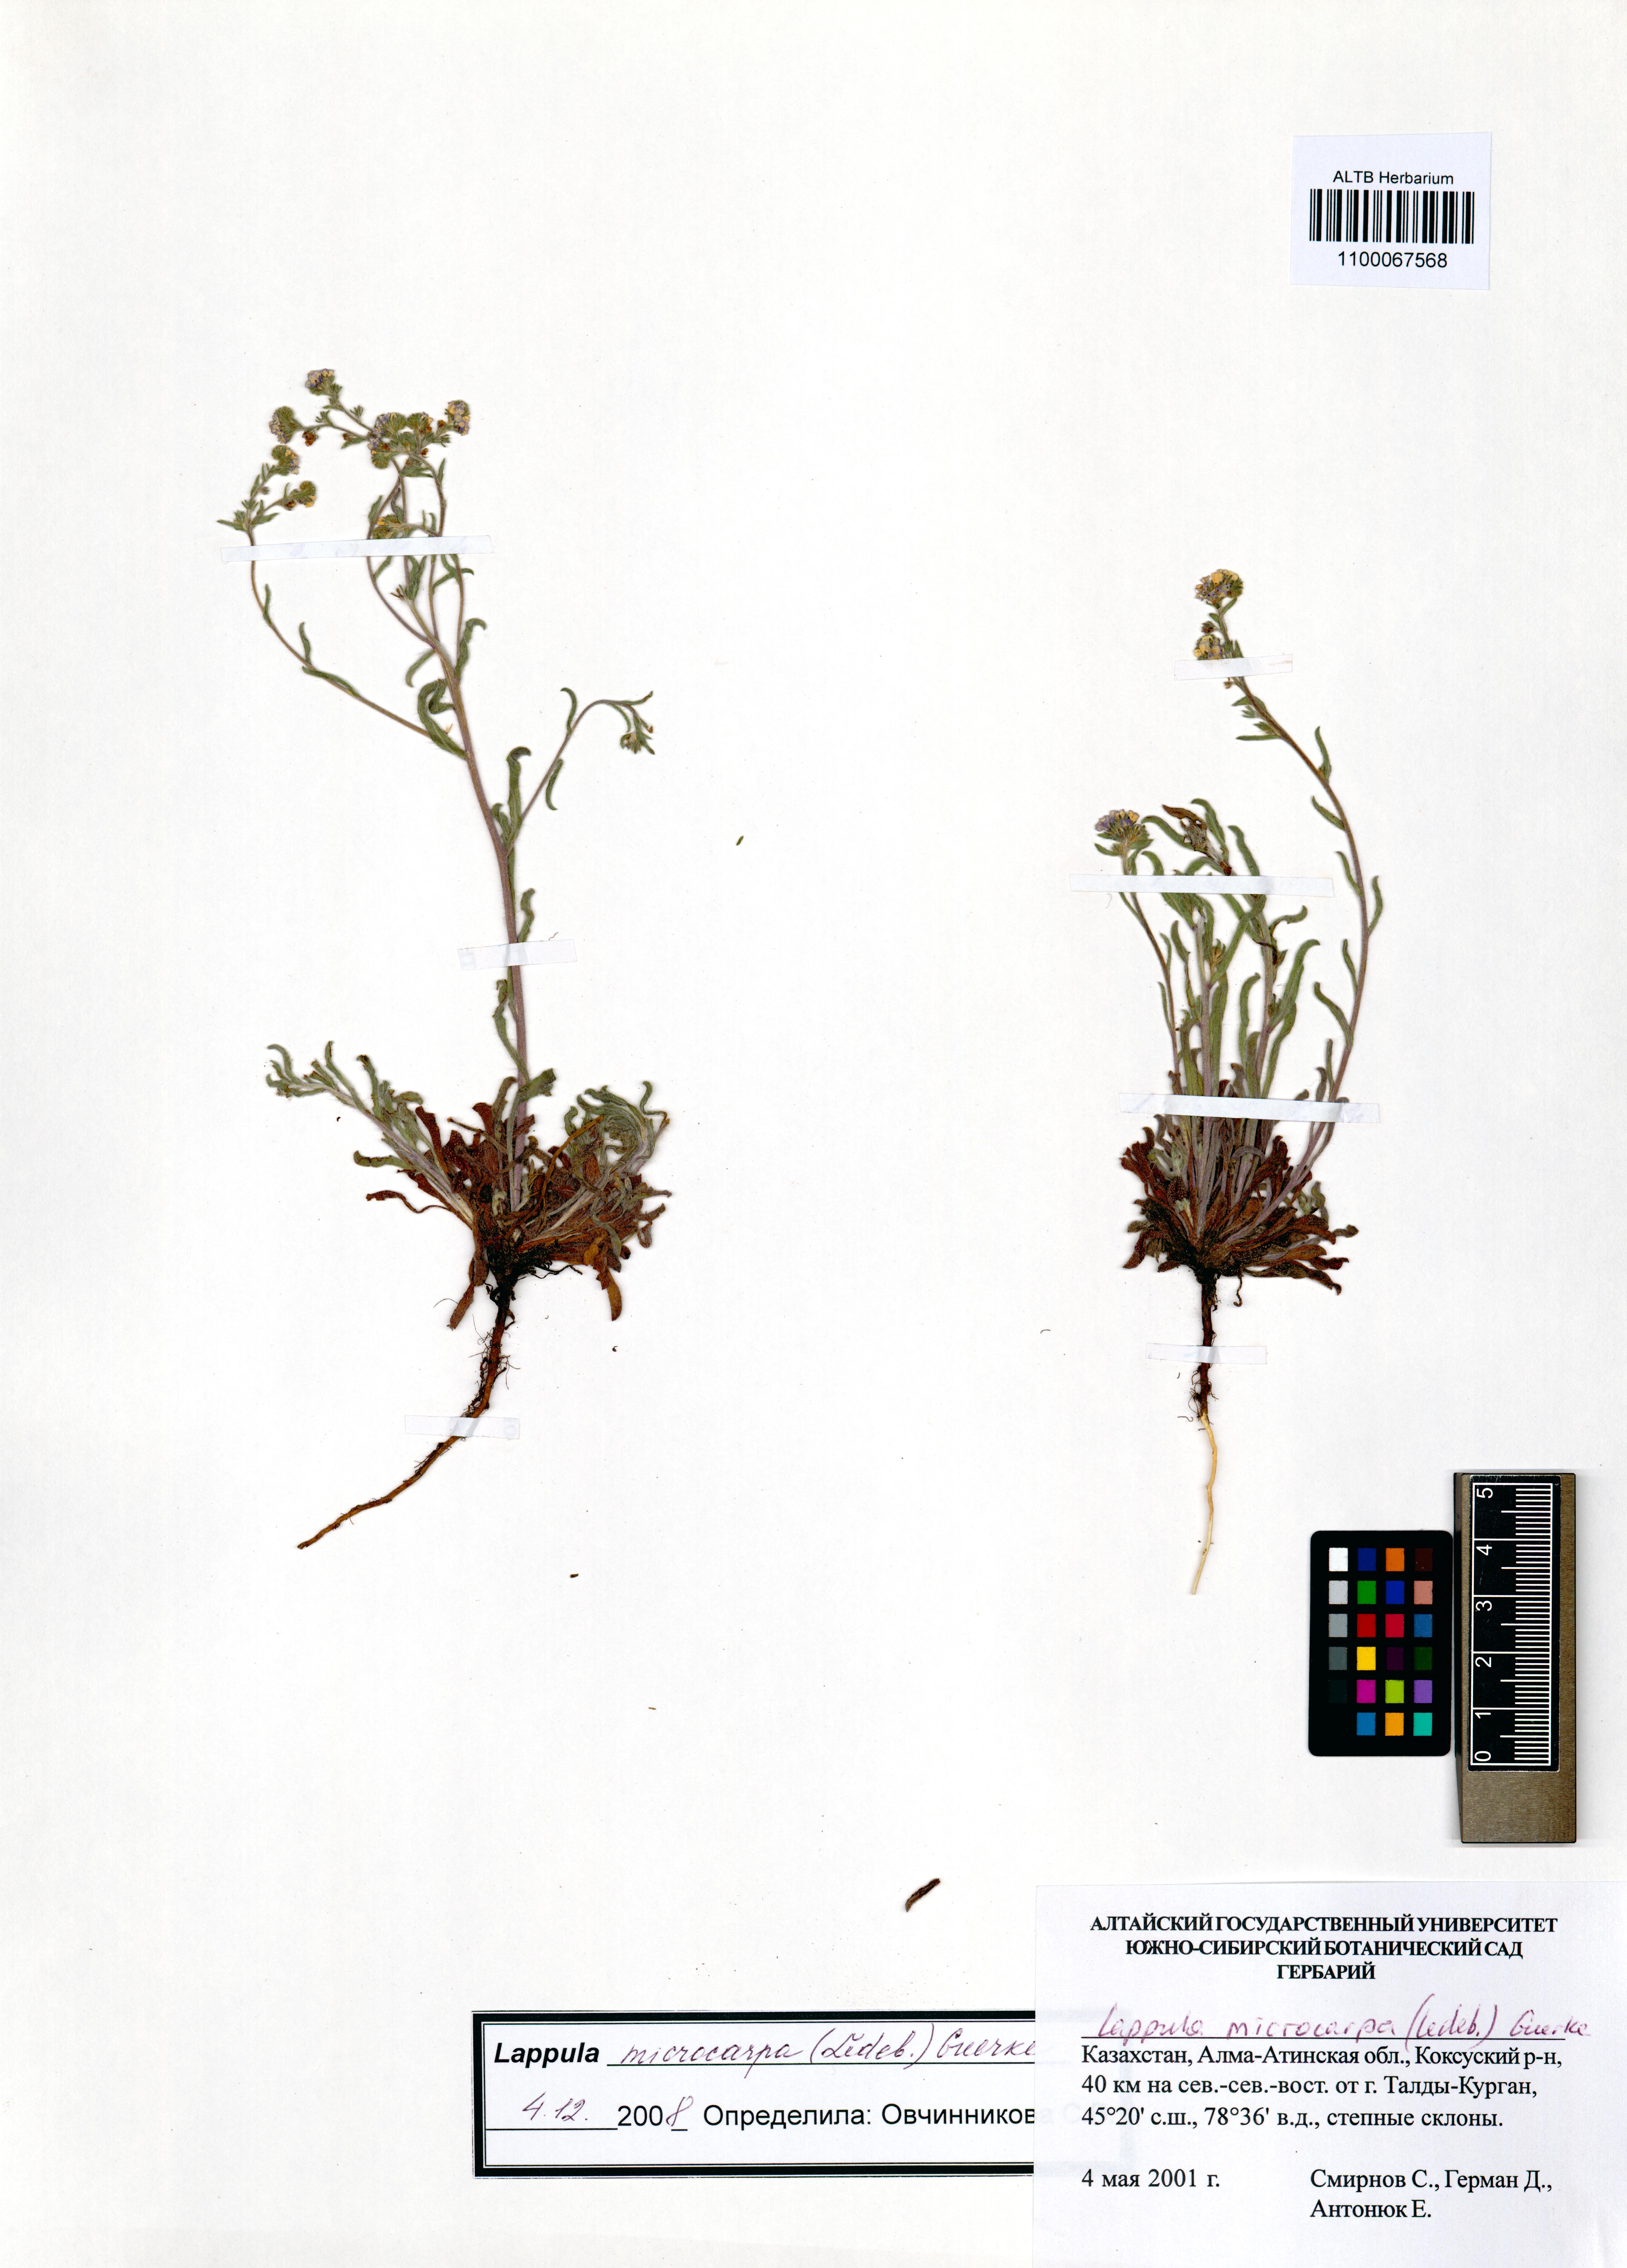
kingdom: Plantae
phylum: Tracheophyta
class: Magnoliopsida
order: Boraginales
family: Boraginaceae
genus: Lappula
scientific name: Lappula microcarpa
